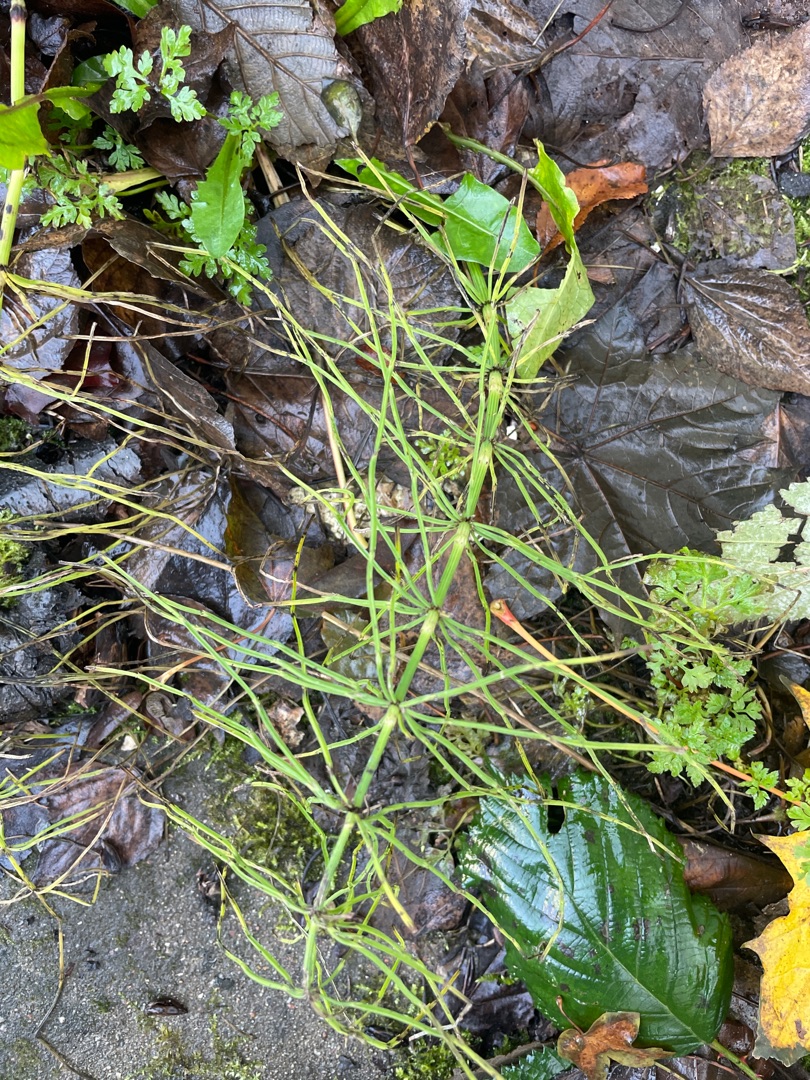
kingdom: Plantae
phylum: Tracheophyta
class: Polypodiopsida
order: Equisetales
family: Equisetaceae
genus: Equisetum
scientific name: Equisetum arvense
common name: Ager-padderok
